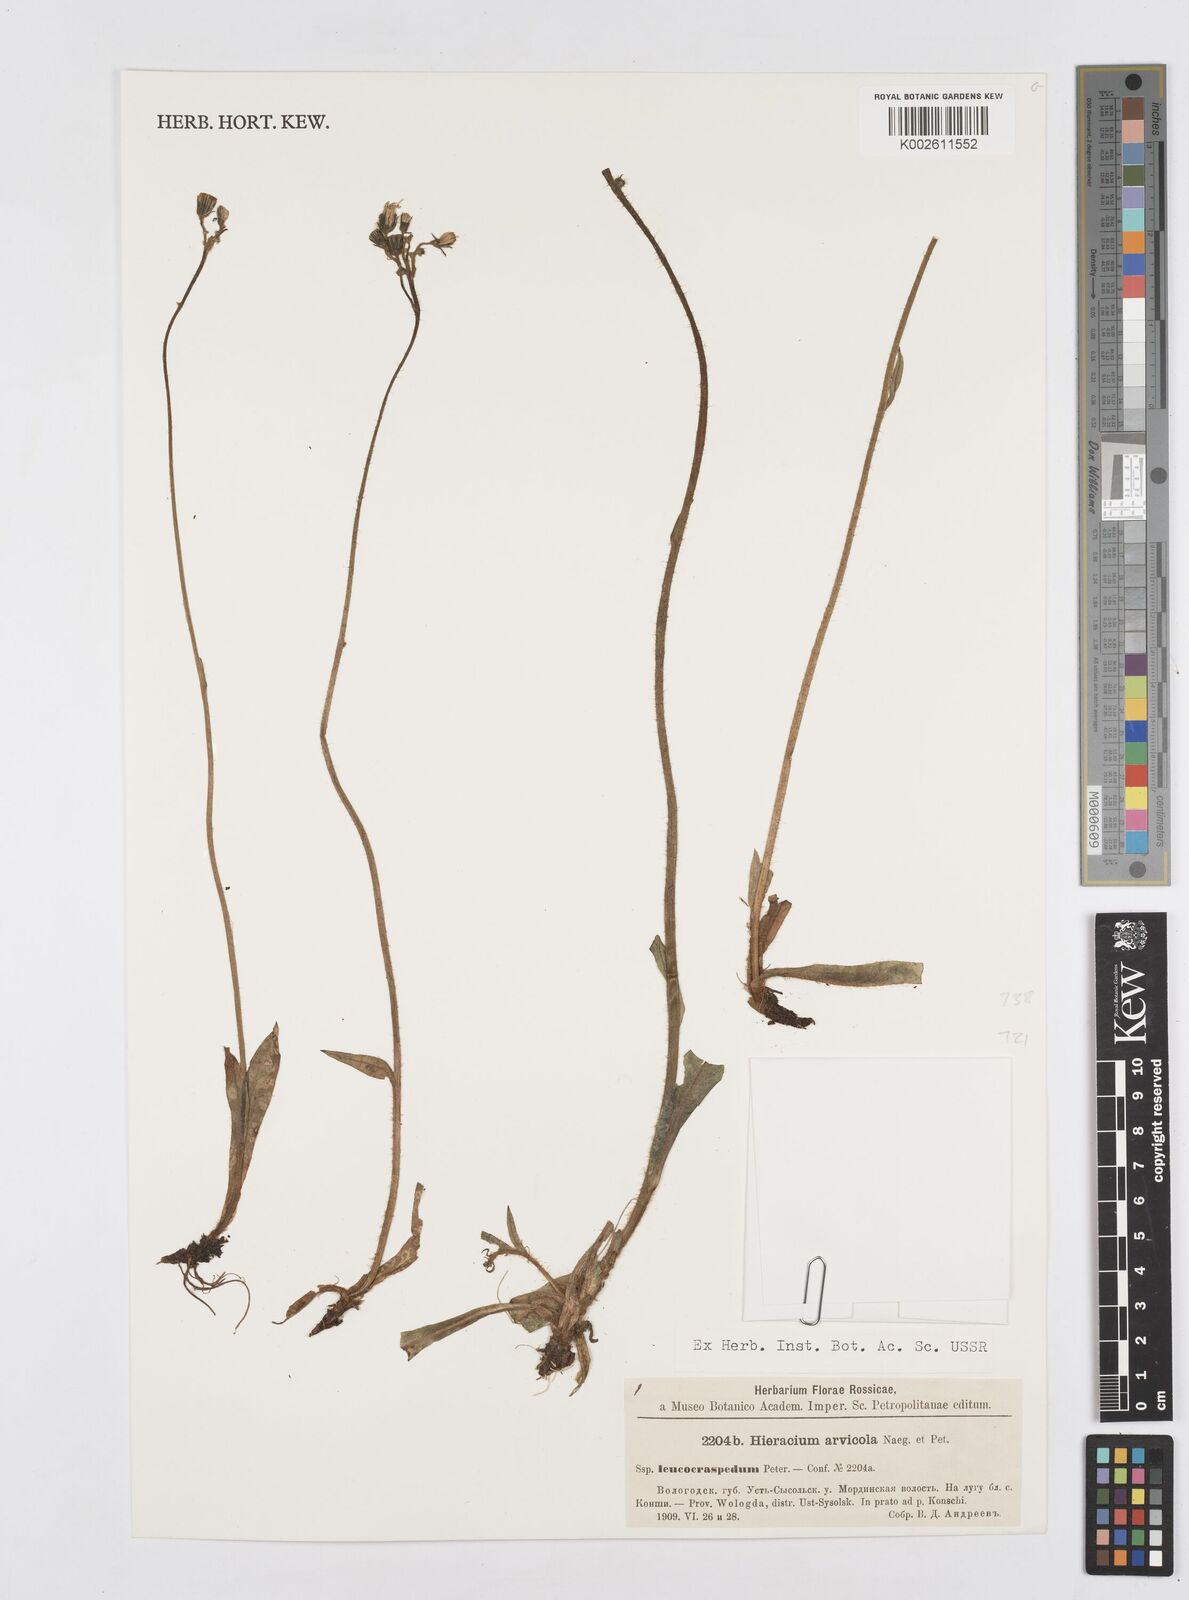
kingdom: Plantae
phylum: Tracheophyta
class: Magnoliopsida
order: Asterales
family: Asteraceae
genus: Pilosella
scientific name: Pilosella erythrochrista
